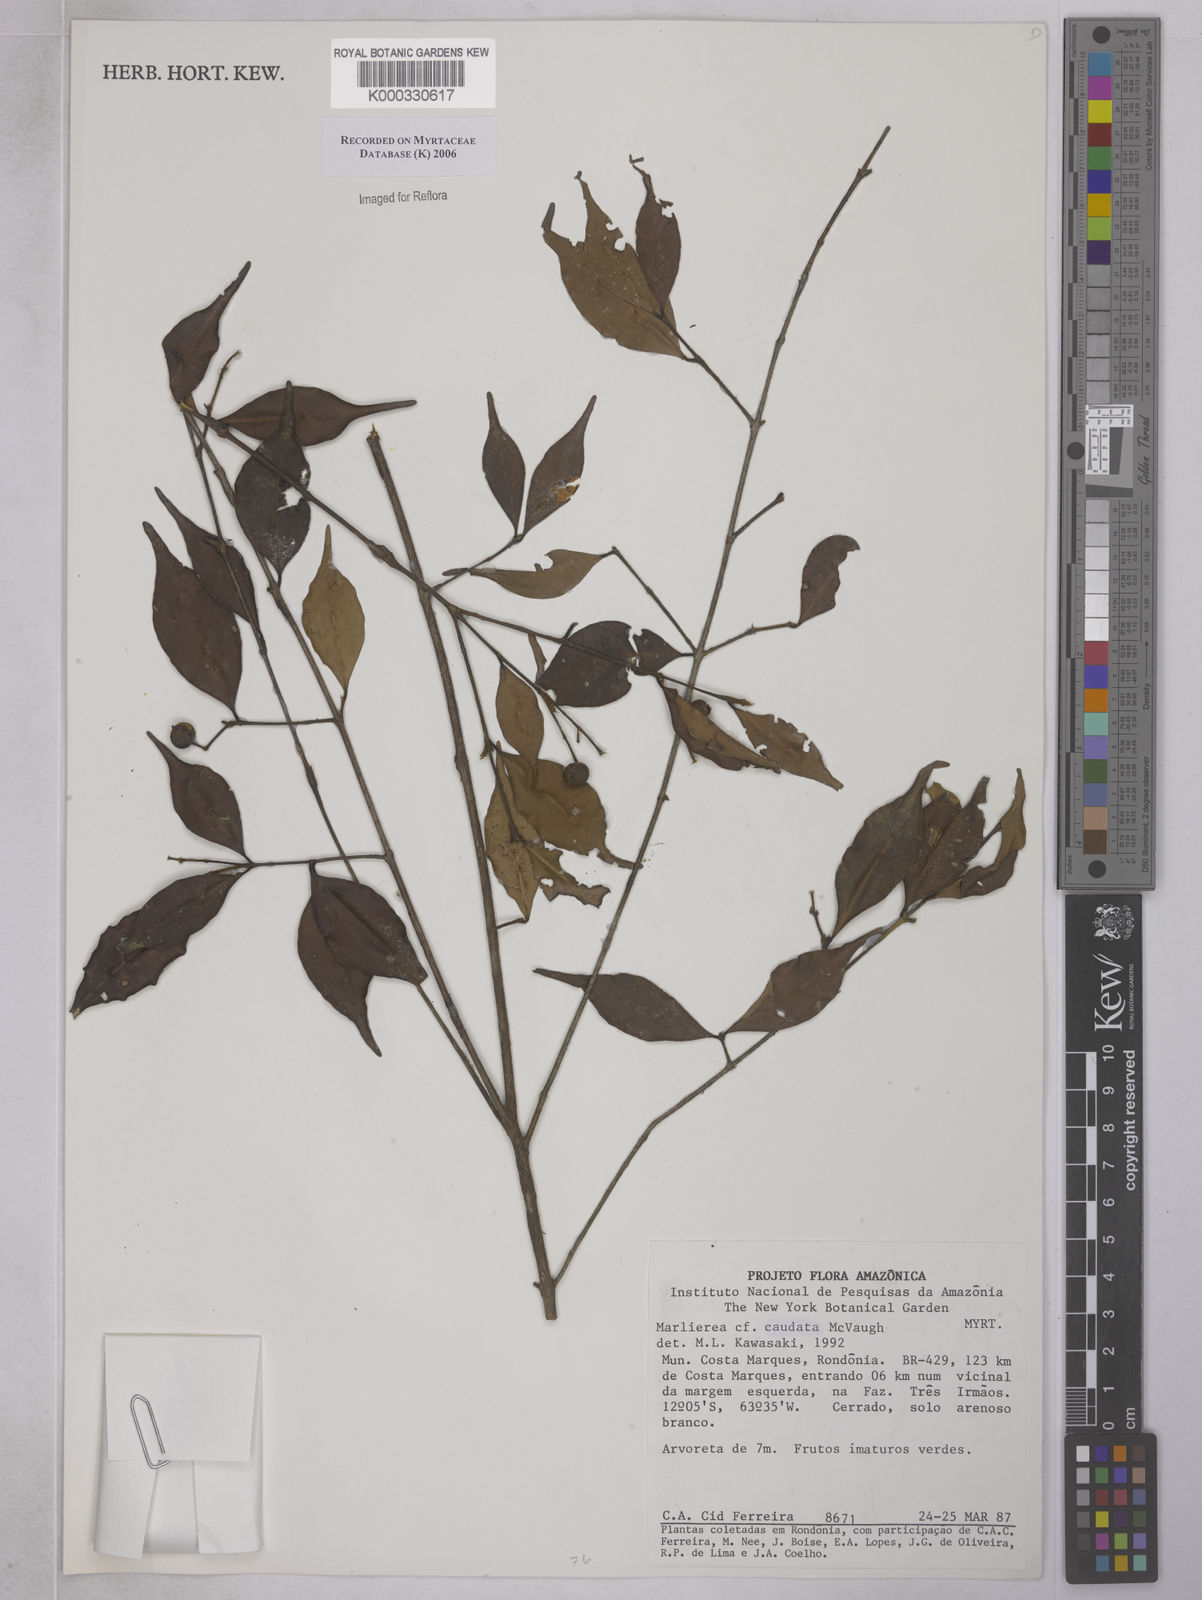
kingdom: Plantae
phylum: Tracheophyta
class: Magnoliopsida
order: Myrtales
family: Myrtaceae
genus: Myrcia
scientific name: Myrcia caudata
